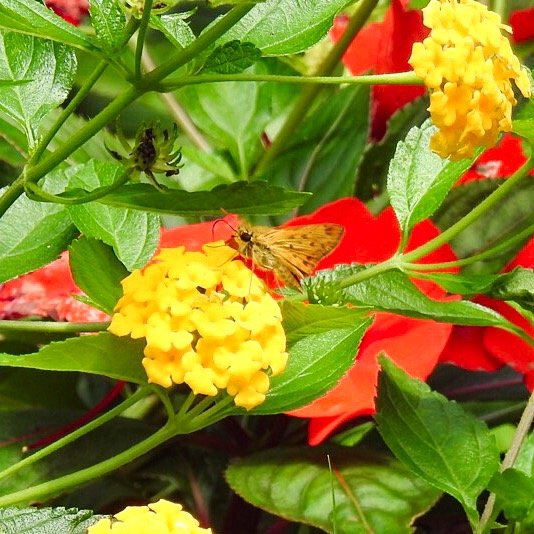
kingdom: Animalia
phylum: Arthropoda
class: Insecta
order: Lepidoptera
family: Hesperiidae
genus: Hylephila
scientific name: Hylephila phyleus
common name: Fiery Skipper
